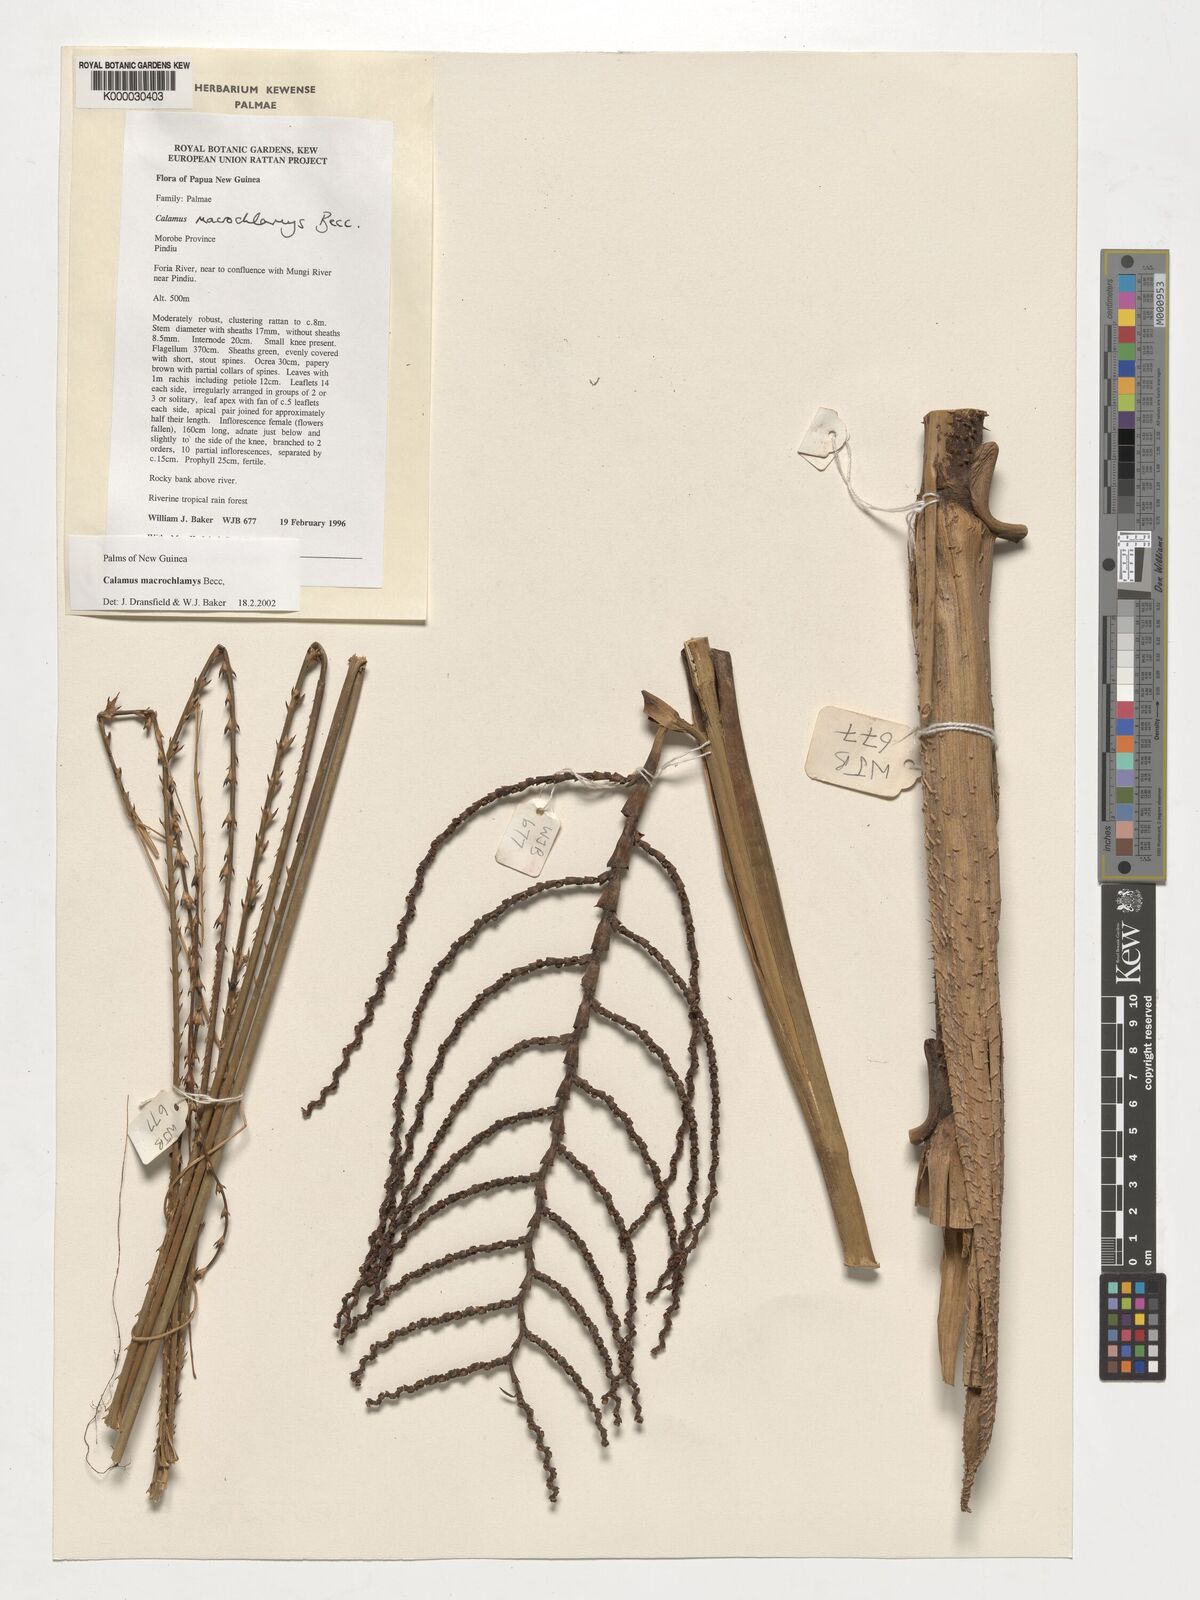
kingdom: Plantae
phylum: Tracheophyta
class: Liliopsida
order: Arecales
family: Arecaceae
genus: Calamus
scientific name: Calamus macrochlamys
